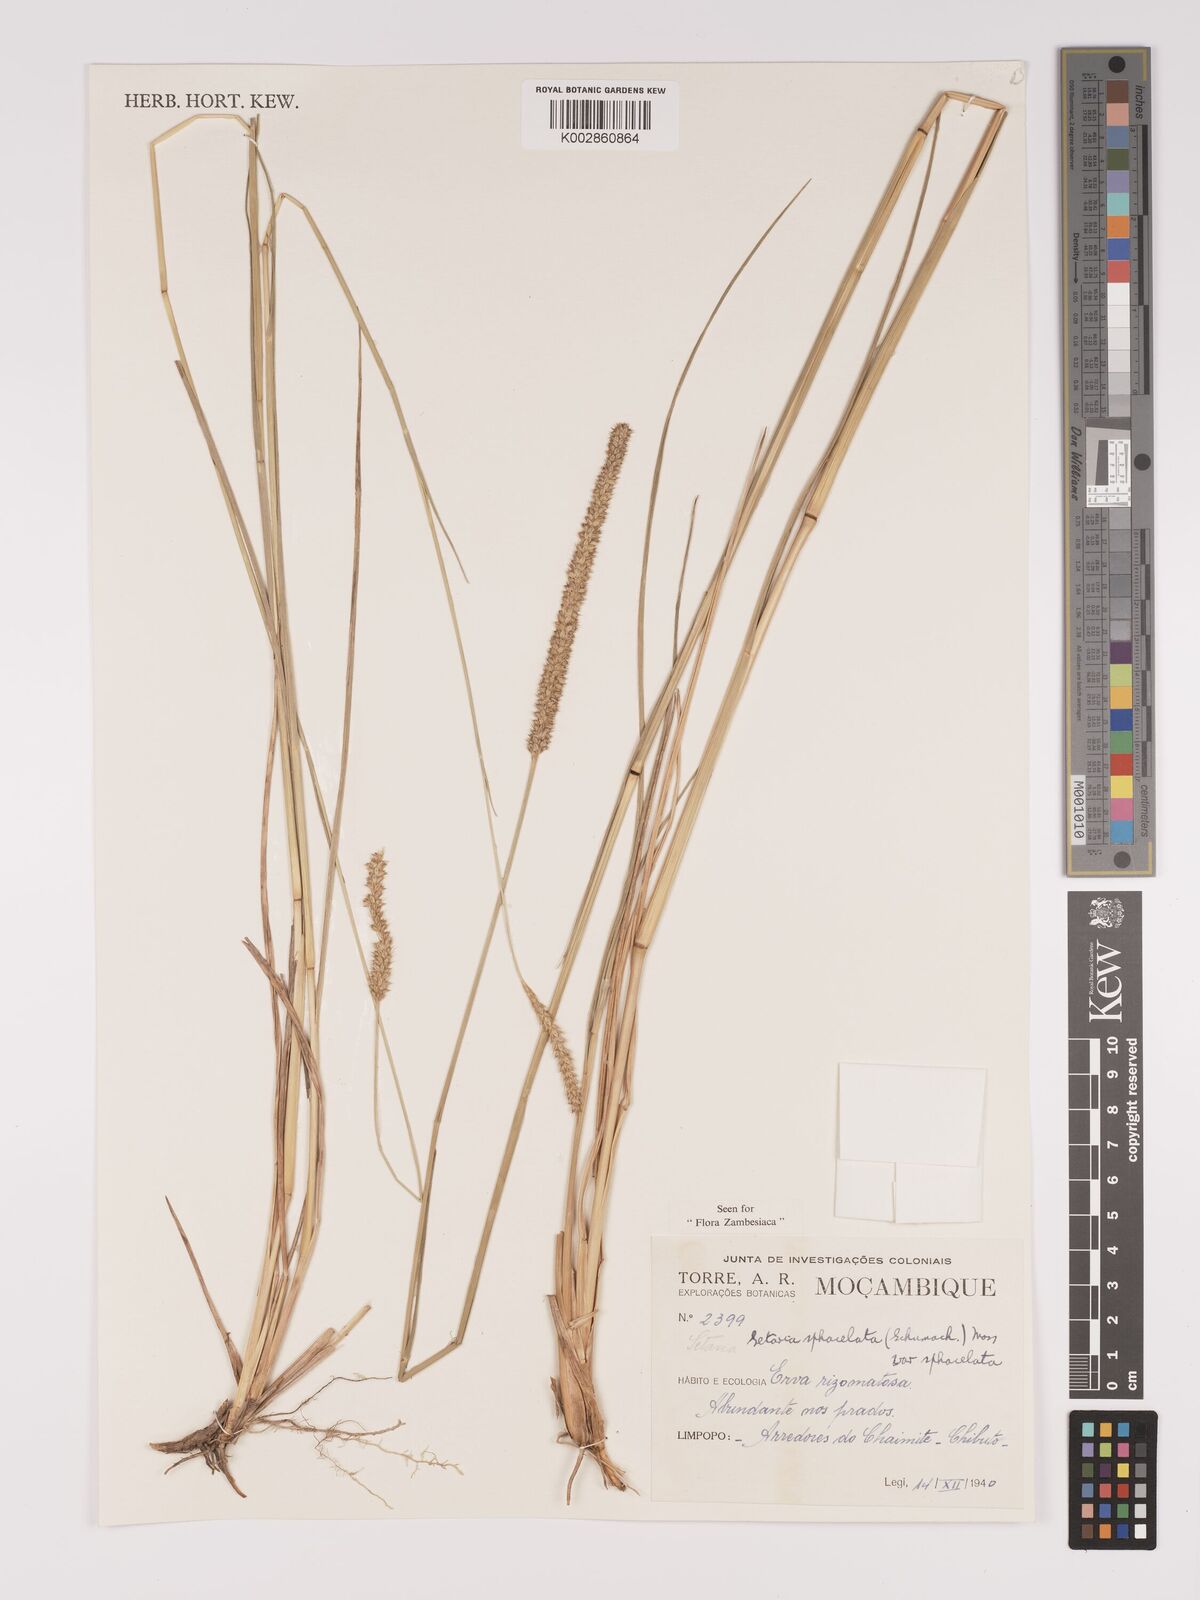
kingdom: Plantae
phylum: Tracheophyta
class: Liliopsida
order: Poales
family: Poaceae
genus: Setaria
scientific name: Setaria sphacelata
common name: African bristlegrass
